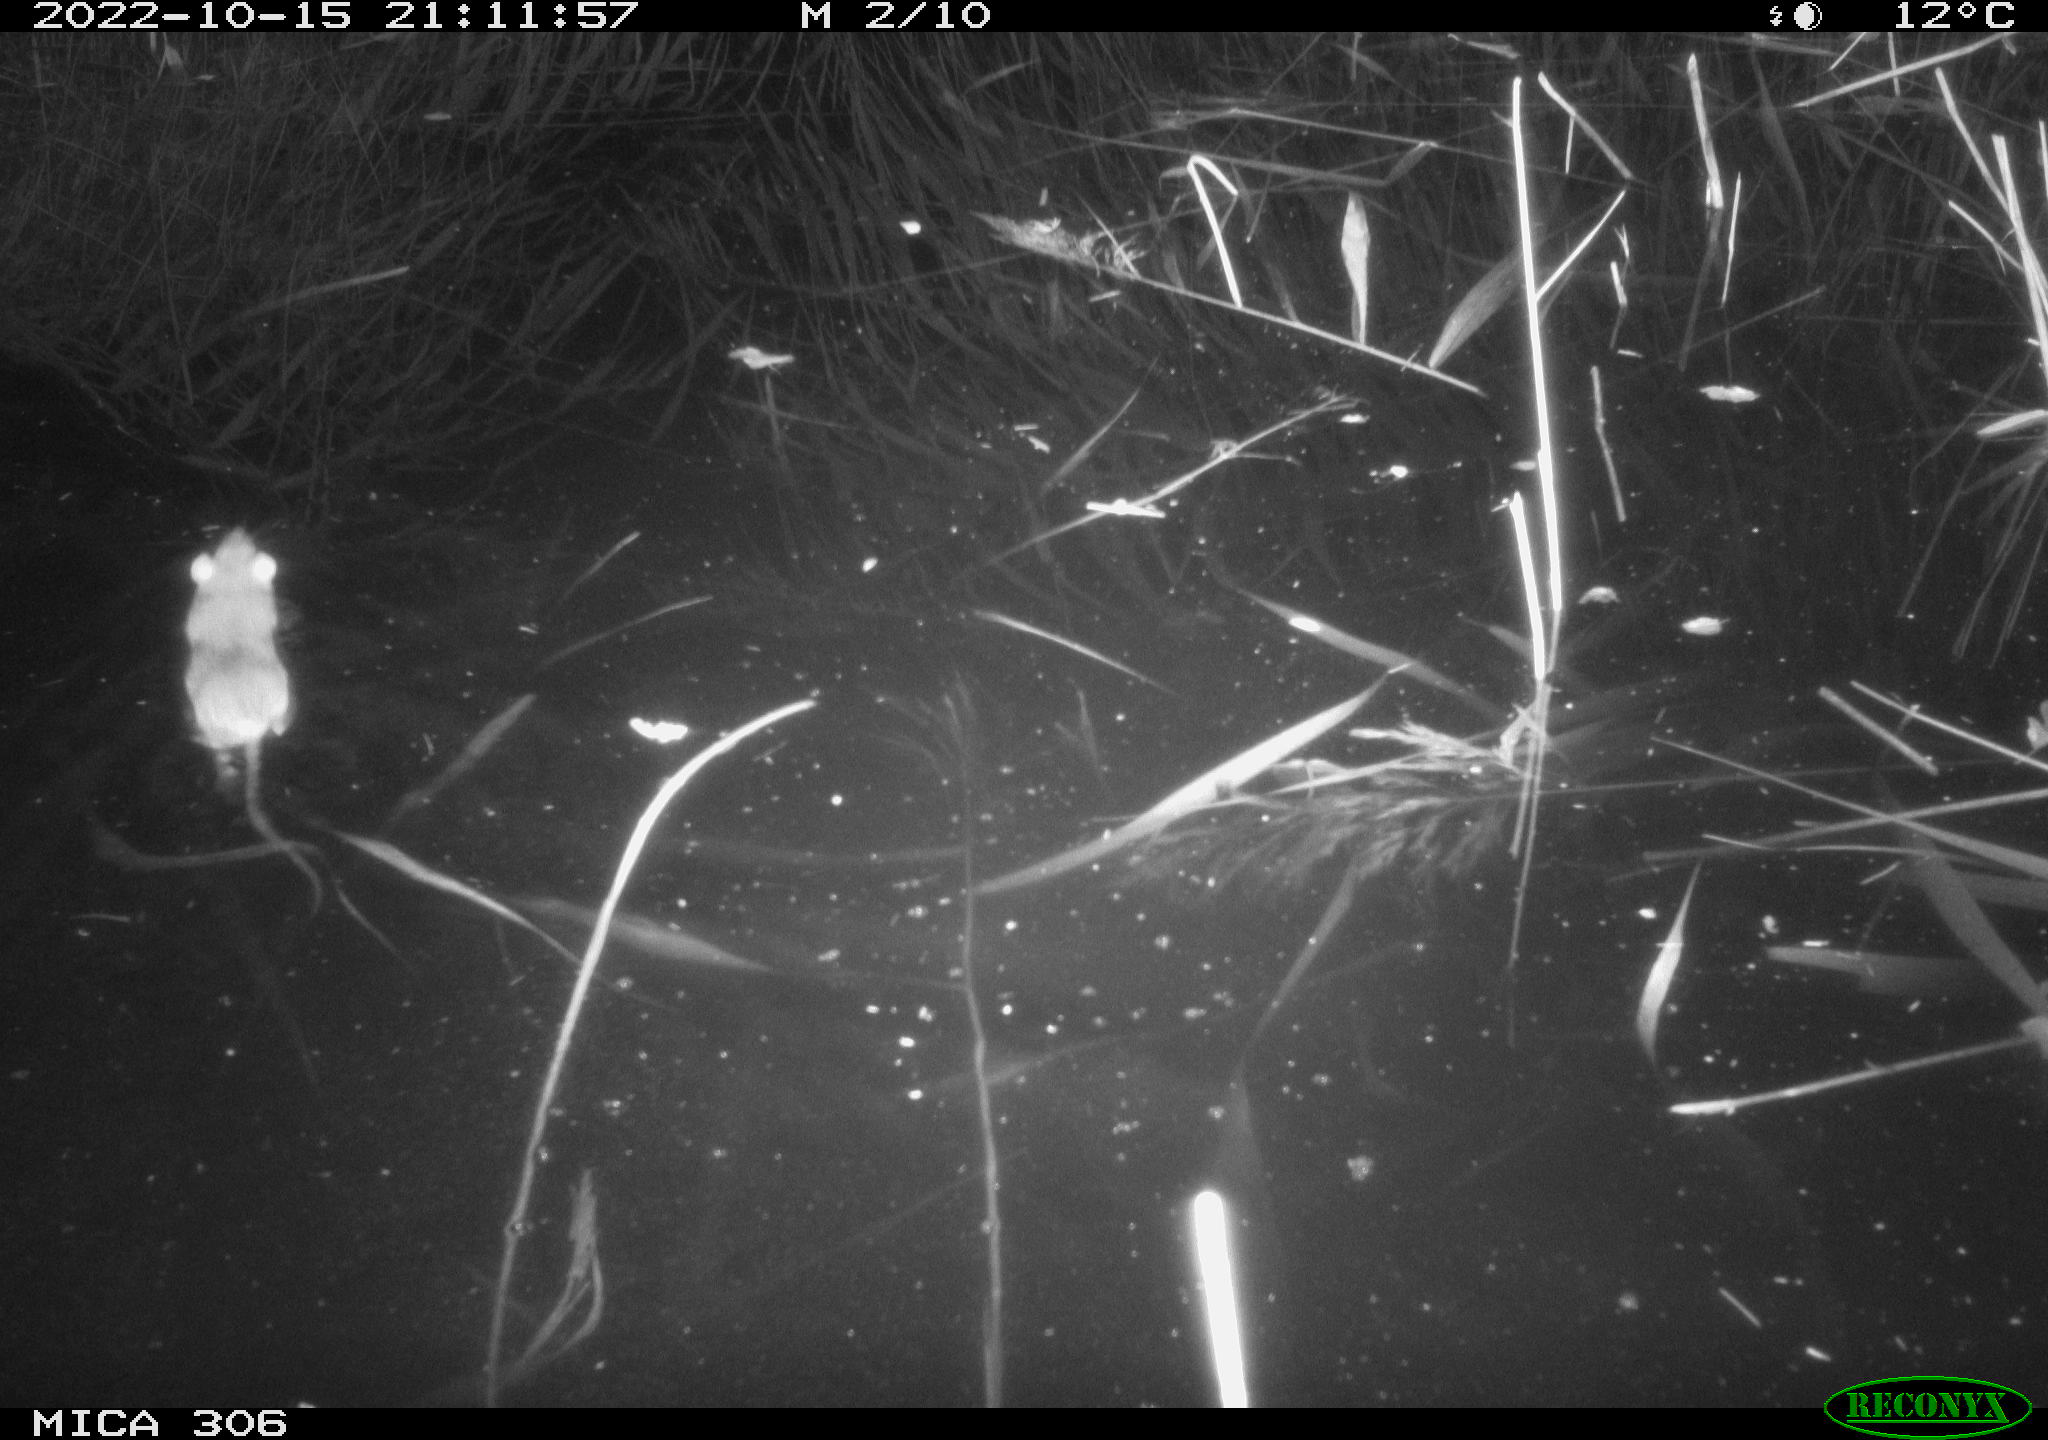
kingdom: Animalia
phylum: Chordata
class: Mammalia
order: Rodentia
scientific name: Rodentia
